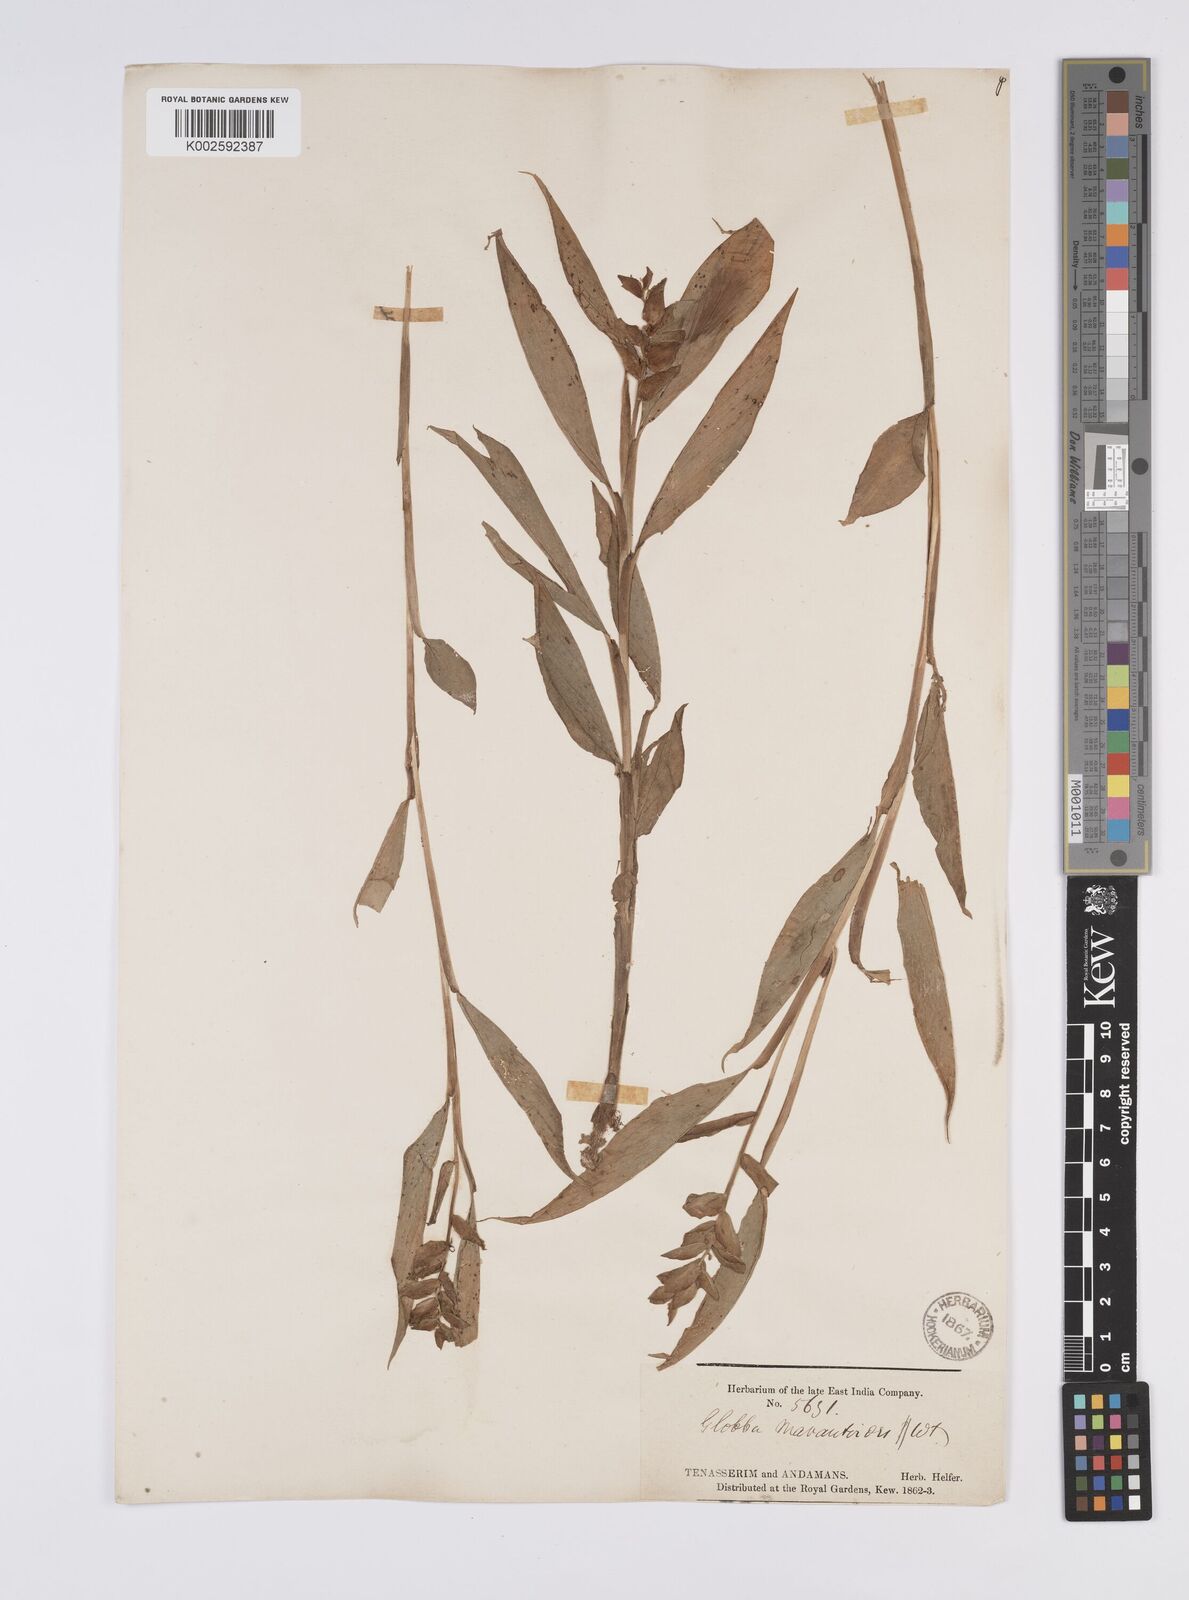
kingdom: Plantae
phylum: Tracheophyta
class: Liliopsida
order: Zingiberales
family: Zingiberaceae
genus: Globba
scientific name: Globba marantina
